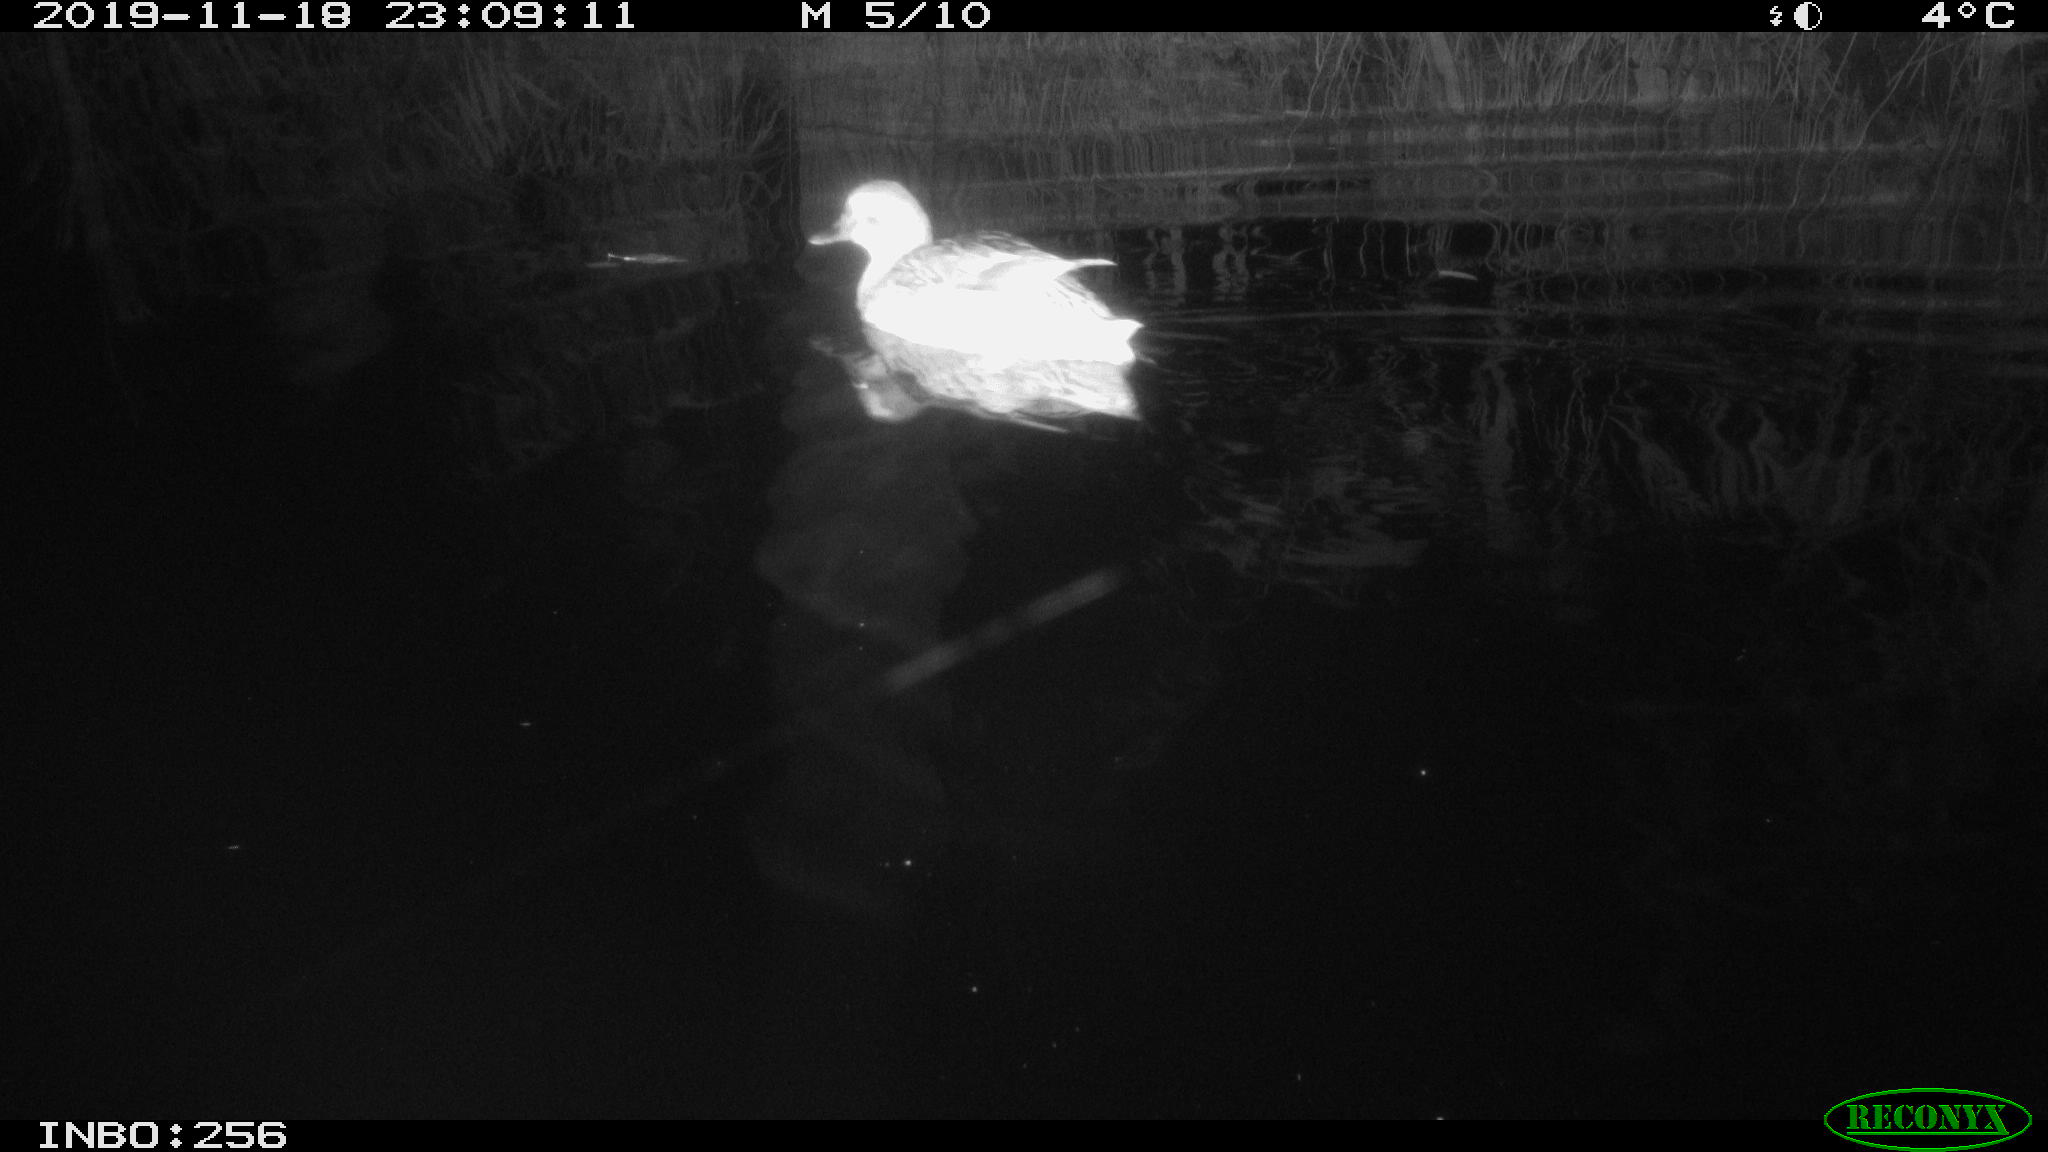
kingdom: Animalia
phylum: Chordata
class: Aves
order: Anseriformes
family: Anatidae
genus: Anas
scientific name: Anas platyrhynchos
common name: Mallard
